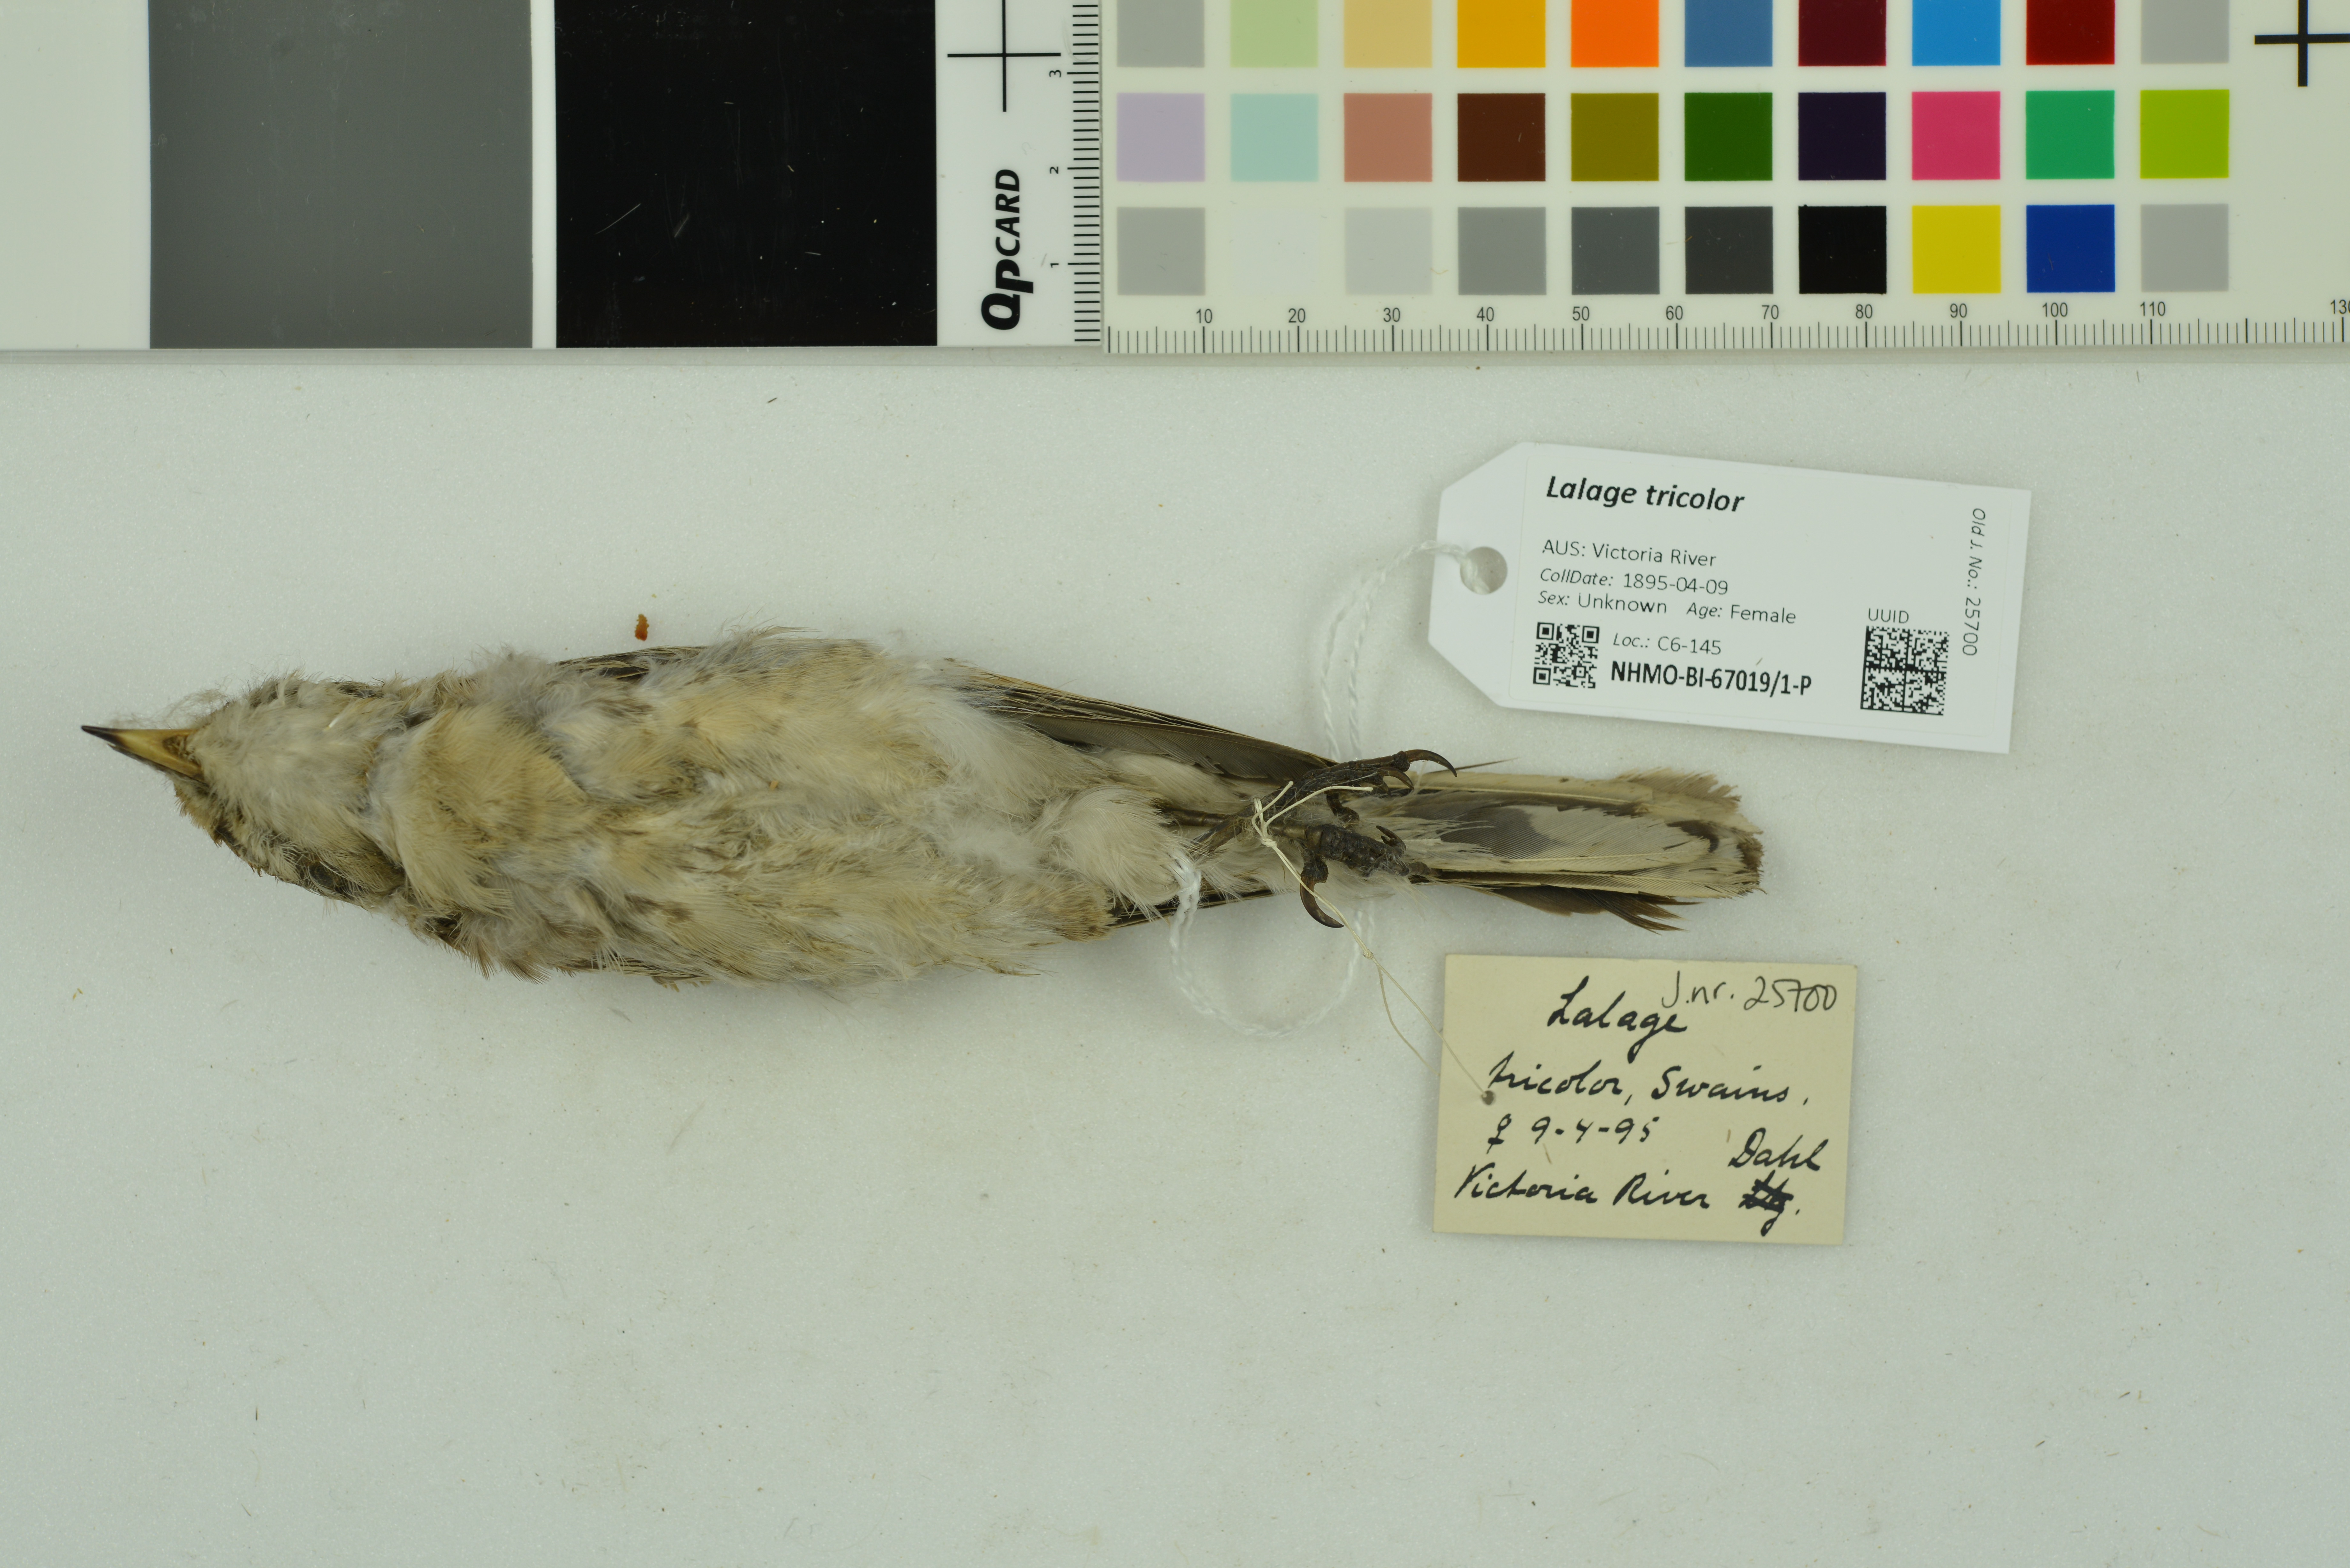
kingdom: Animalia
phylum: Chordata
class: Aves
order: Passeriformes
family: Campephagidae
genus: Lalage
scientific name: Lalage tricolor
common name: White-winged triller
